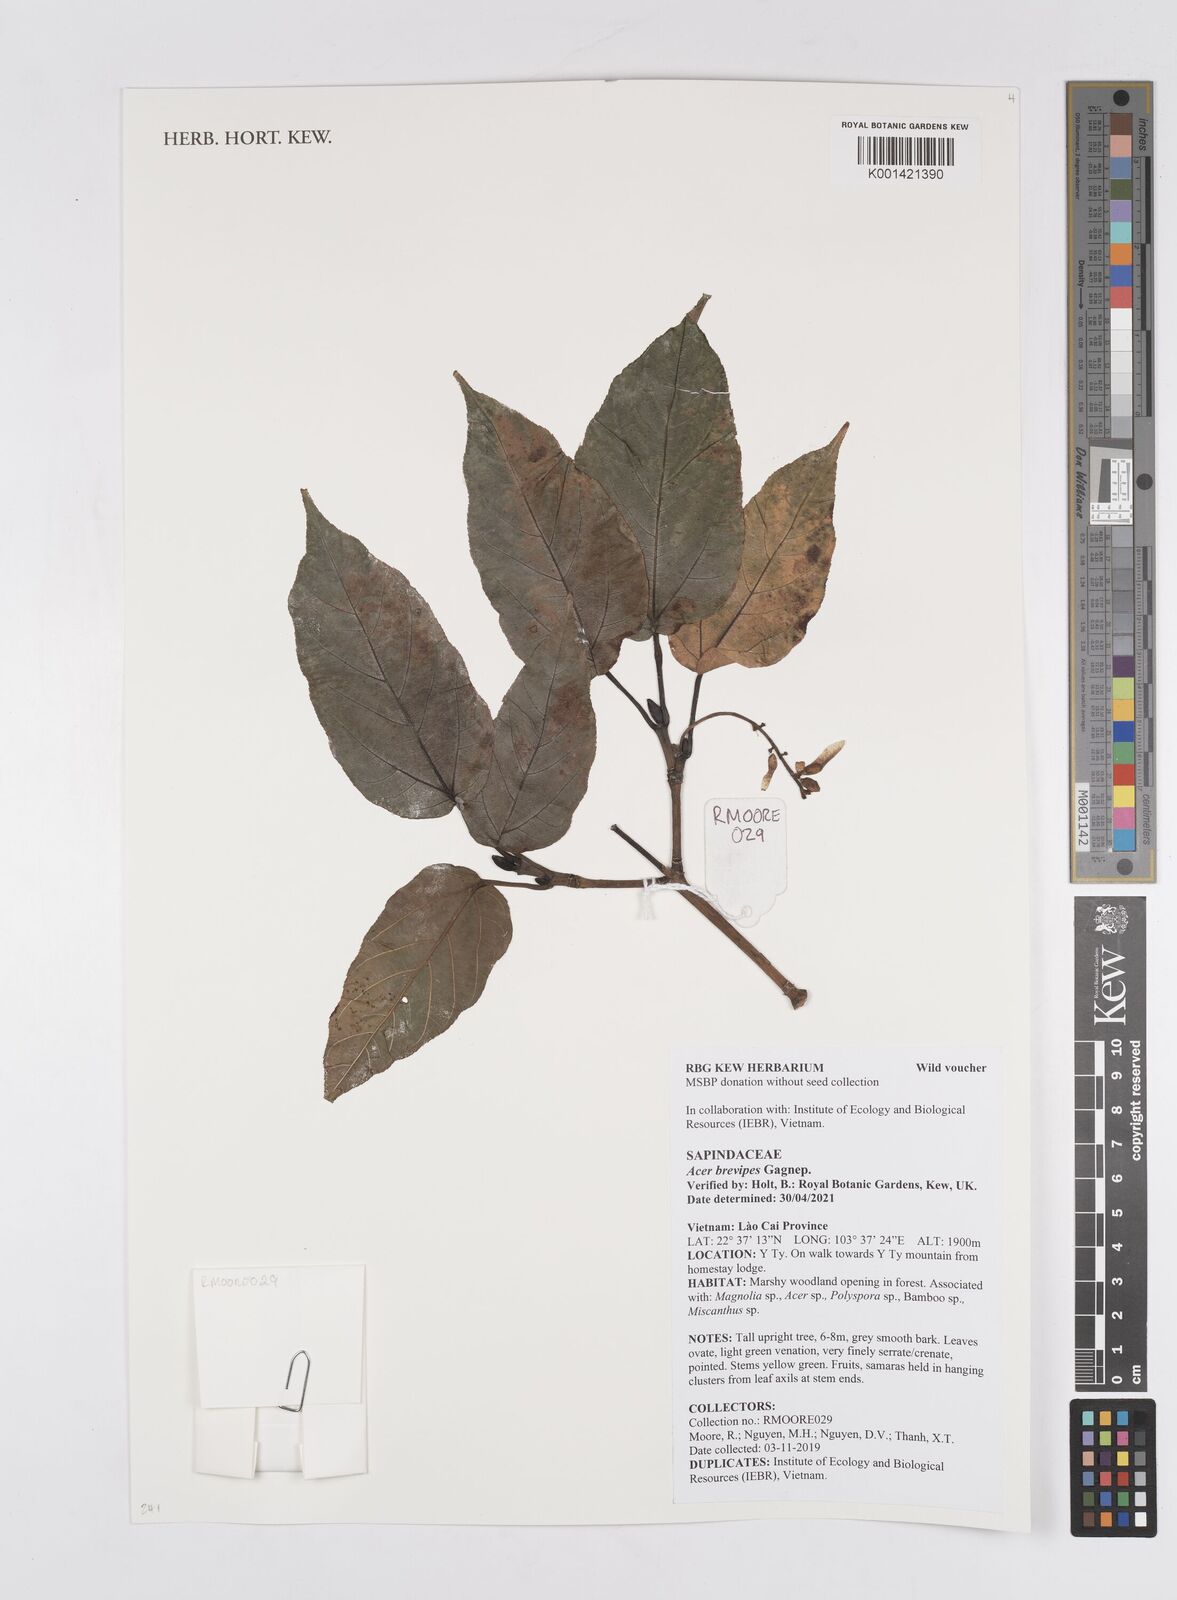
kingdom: Plantae
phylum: Tracheophyta
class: Magnoliopsida
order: Sapindales
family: Sapindaceae
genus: Acer
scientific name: Acer brevipes
